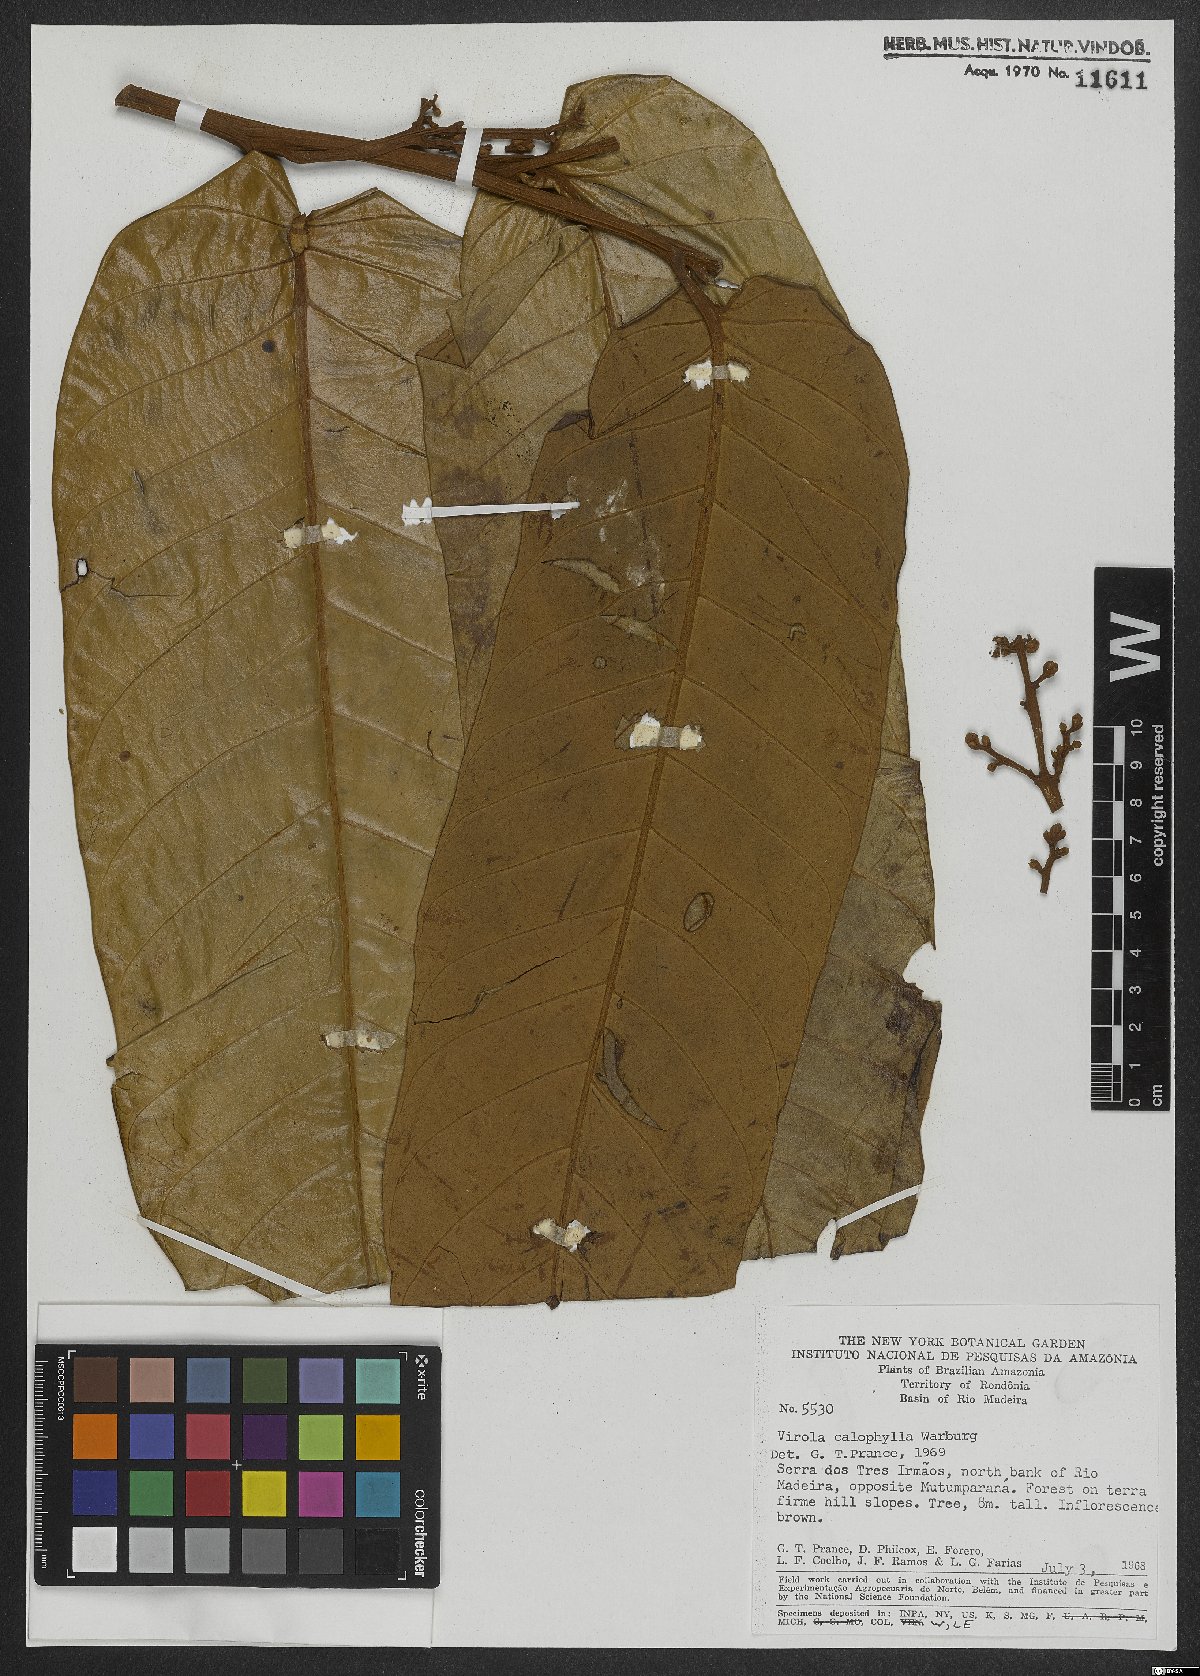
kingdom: Plantae
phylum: Tracheophyta
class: Magnoliopsida
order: Magnoliales
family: Myristicaceae
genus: Virola
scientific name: Virola calophylla
